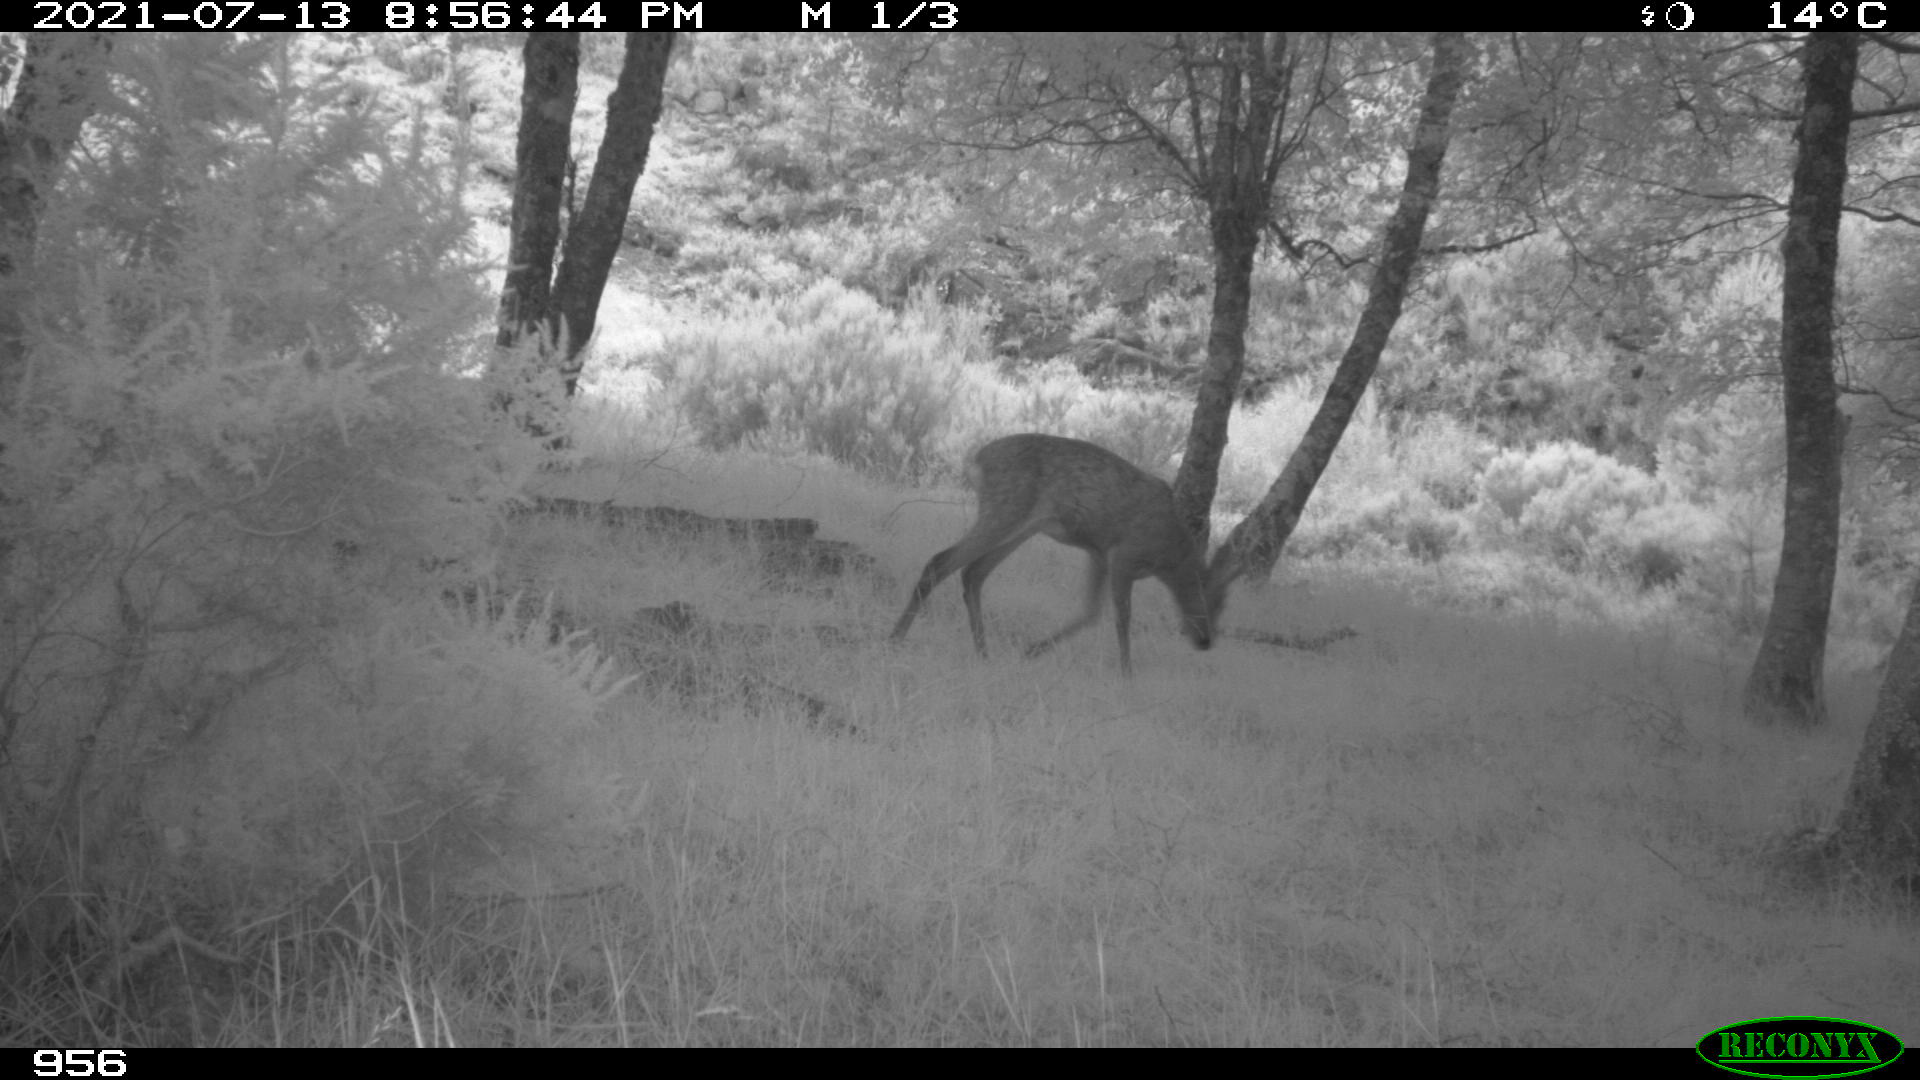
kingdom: Animalia
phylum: Chordata
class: Mammalia
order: Artiodactyla
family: Cervidae
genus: Capreolus
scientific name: Capreolus capreolus
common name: Western roe deer
